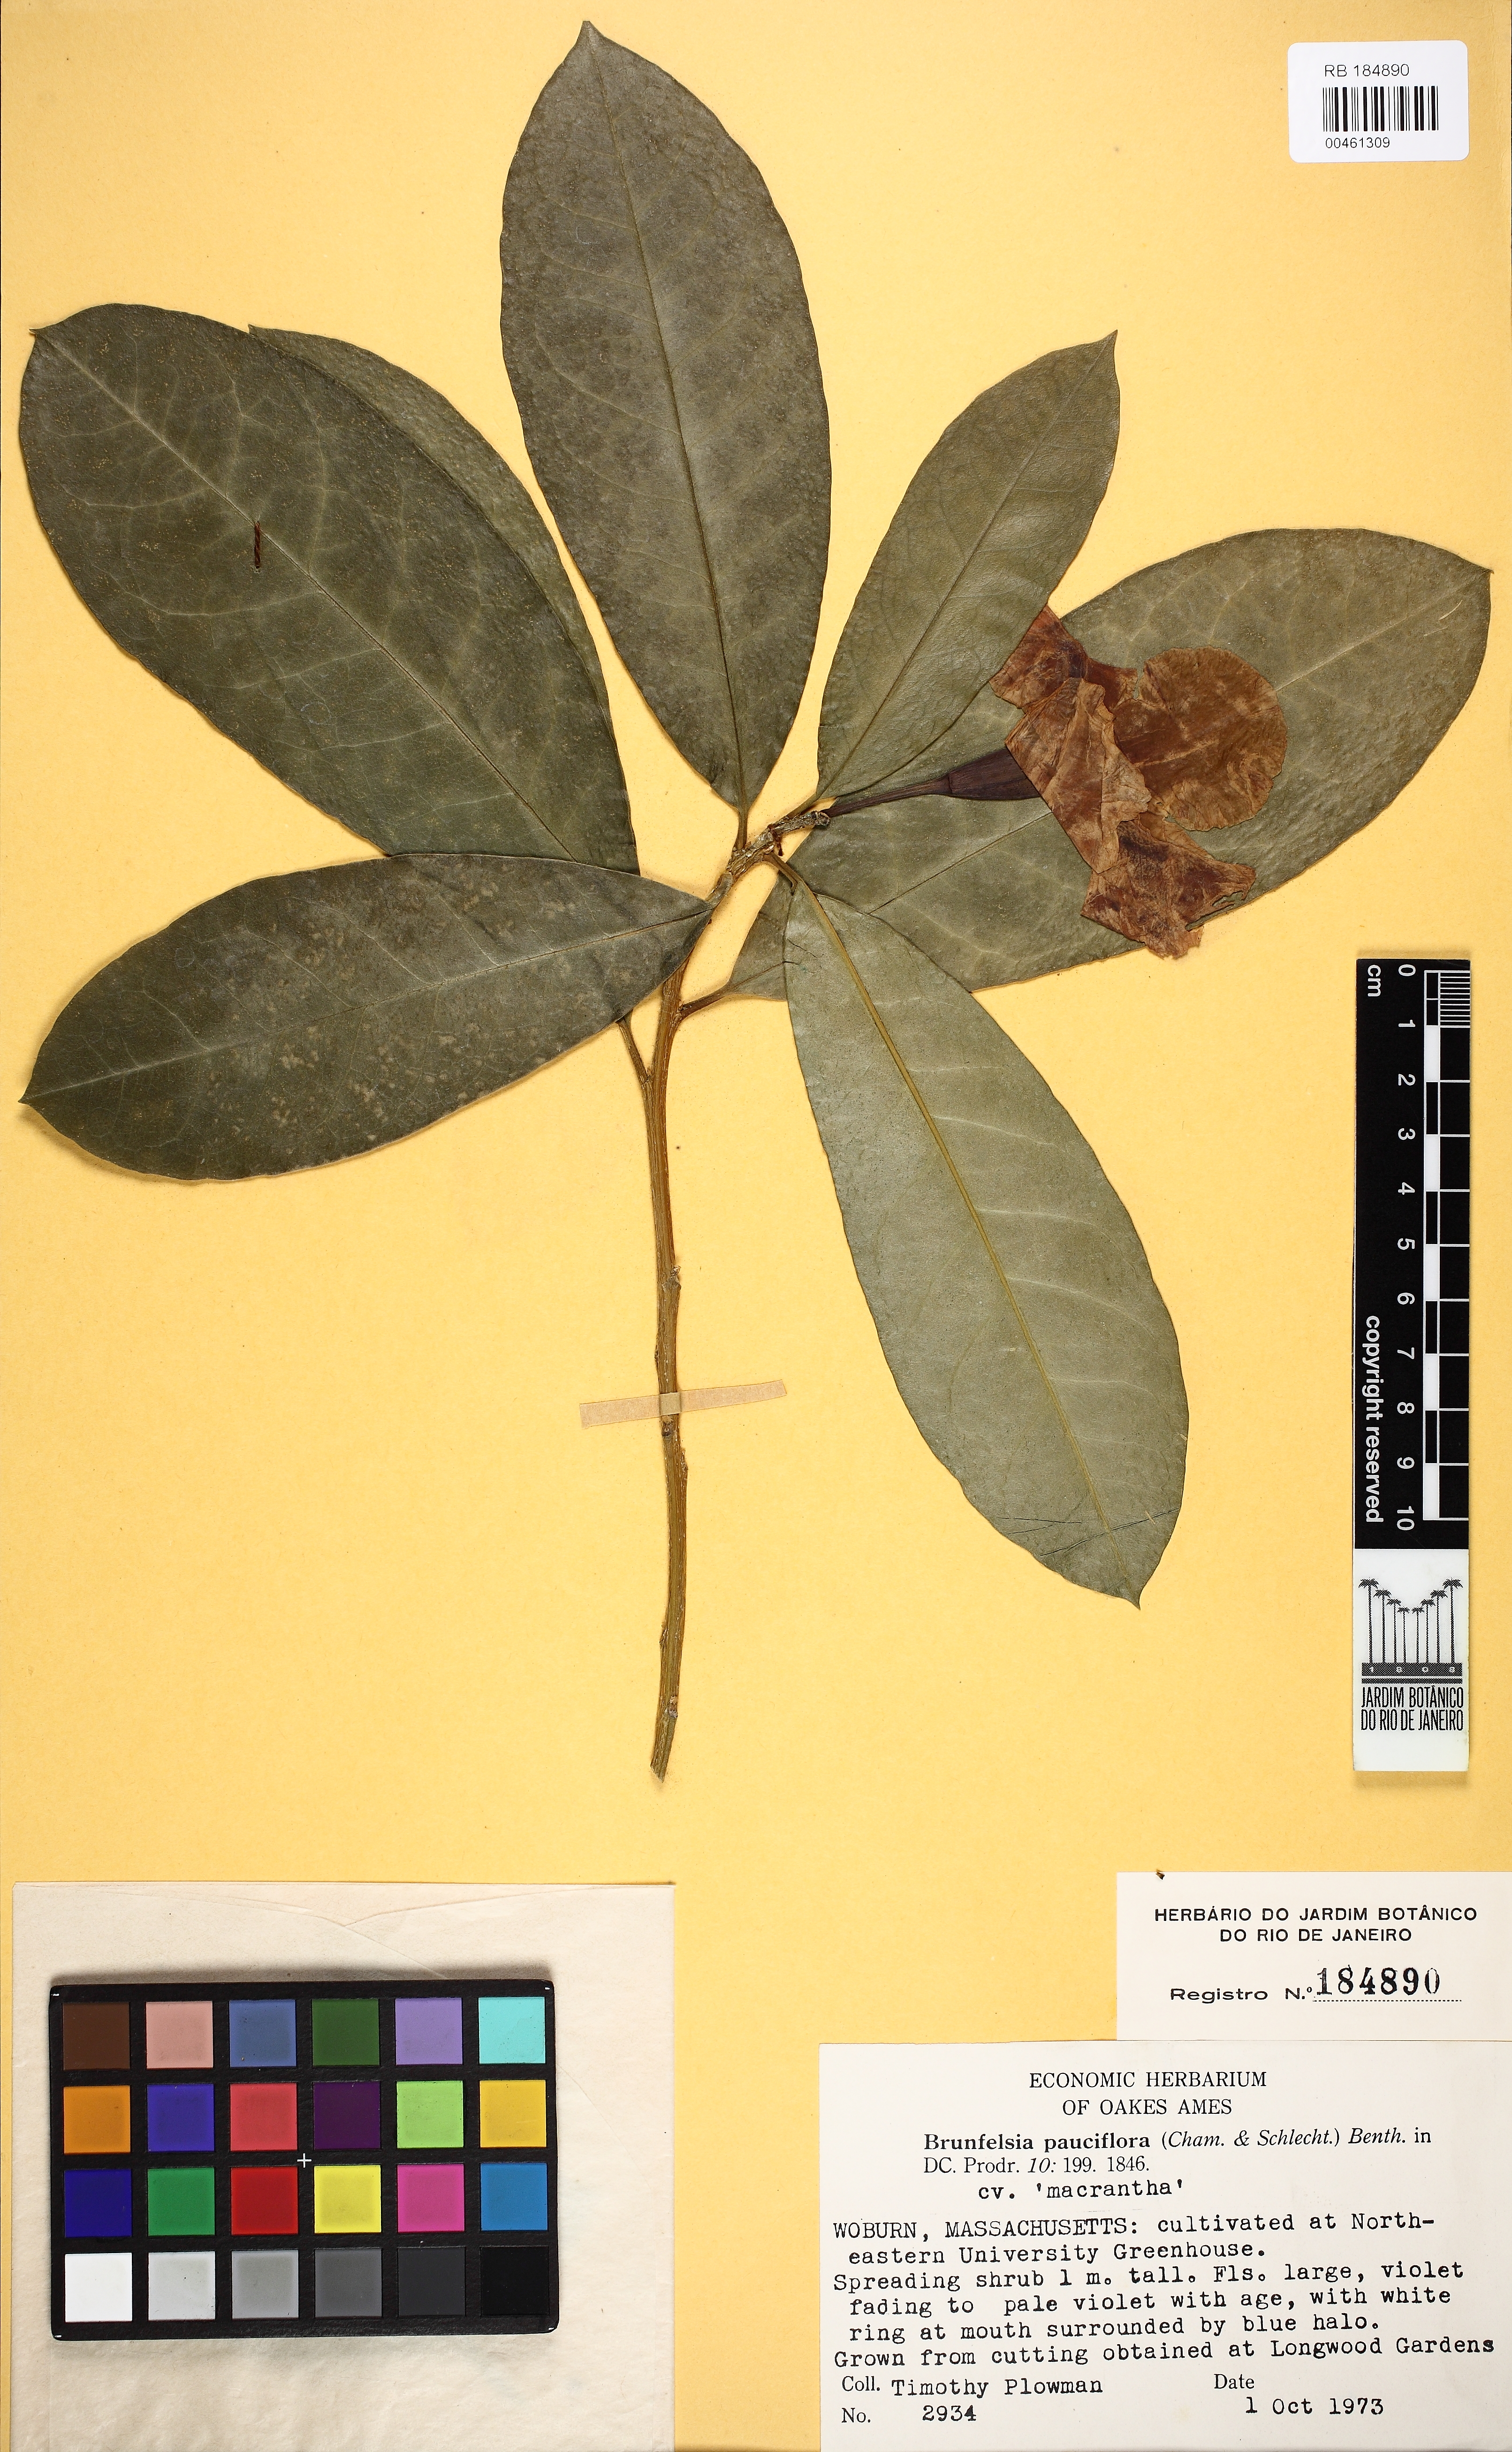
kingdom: Plantae
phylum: Tracheophyta
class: Magnoliopsida
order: Solanales
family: Solanaceae
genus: Brunfelsia
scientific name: Brunfelsia pauciflora
